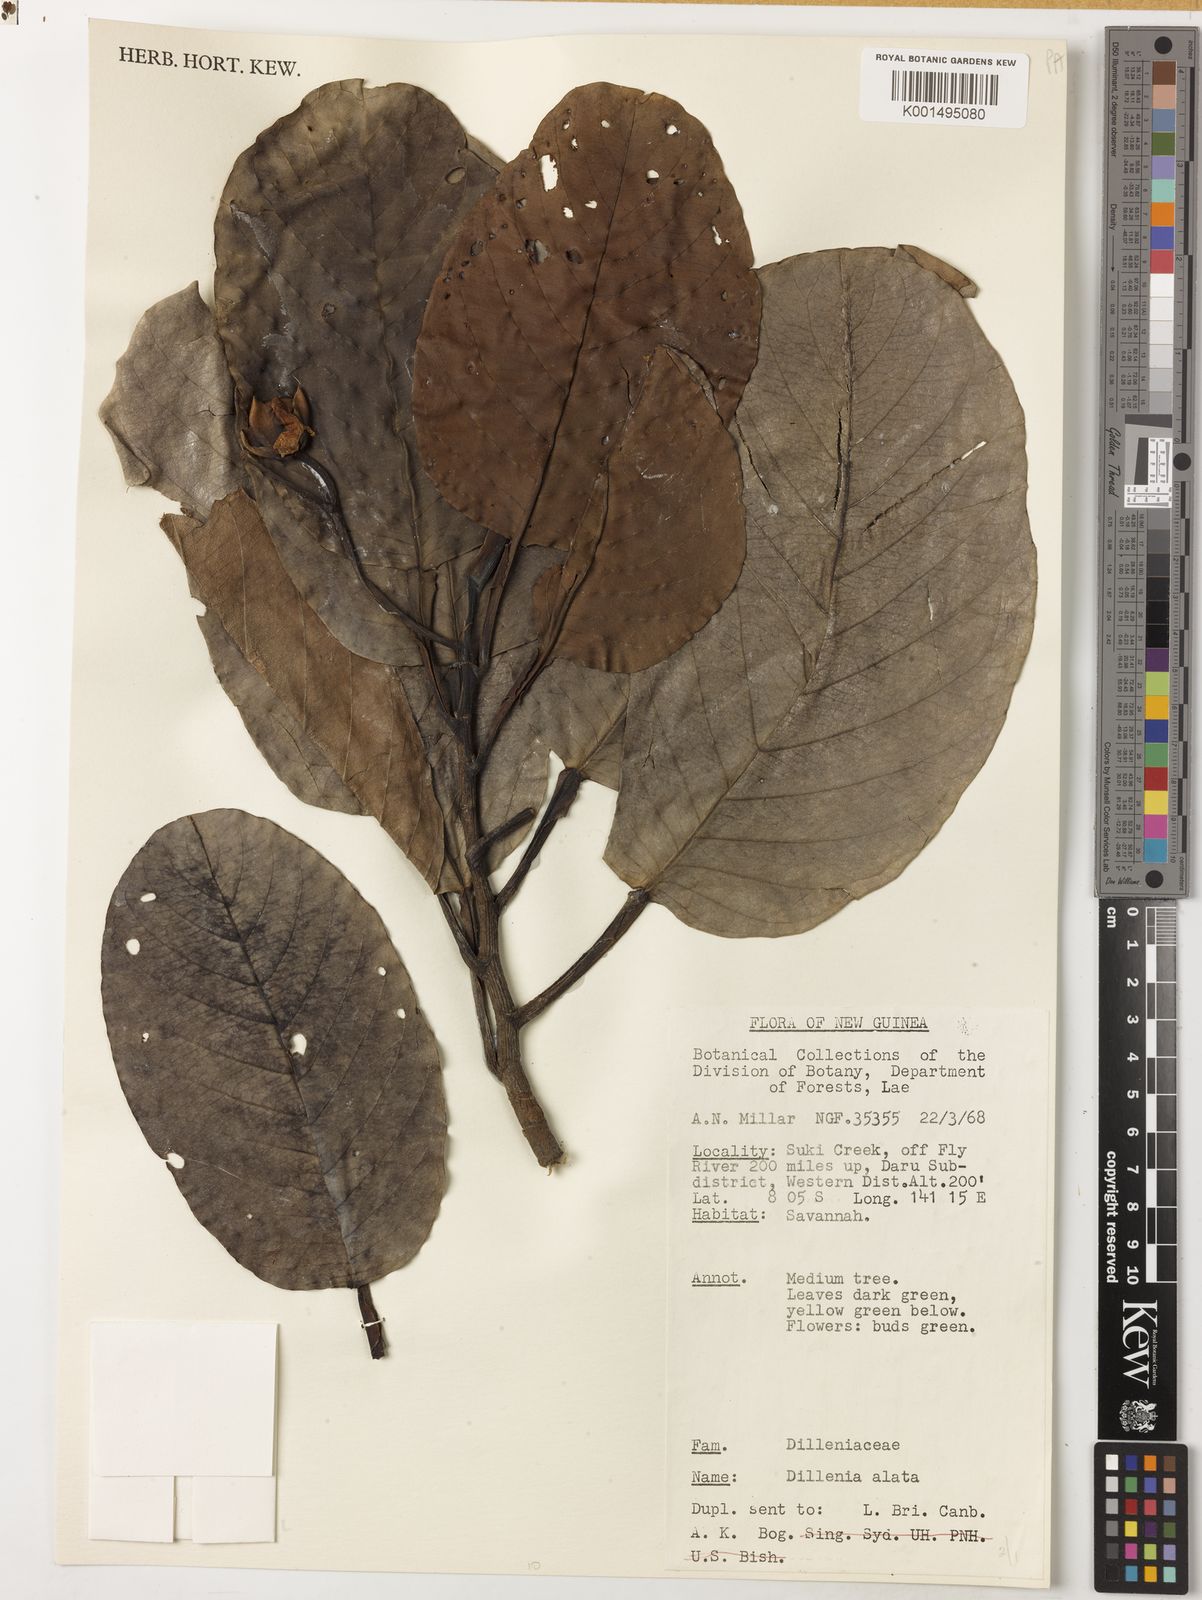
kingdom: Plantae
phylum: Tracheophyta
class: Magnoliopsida
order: Dilleniales
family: Dilleniaceae
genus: Dillenia
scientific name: Dillenia alata
